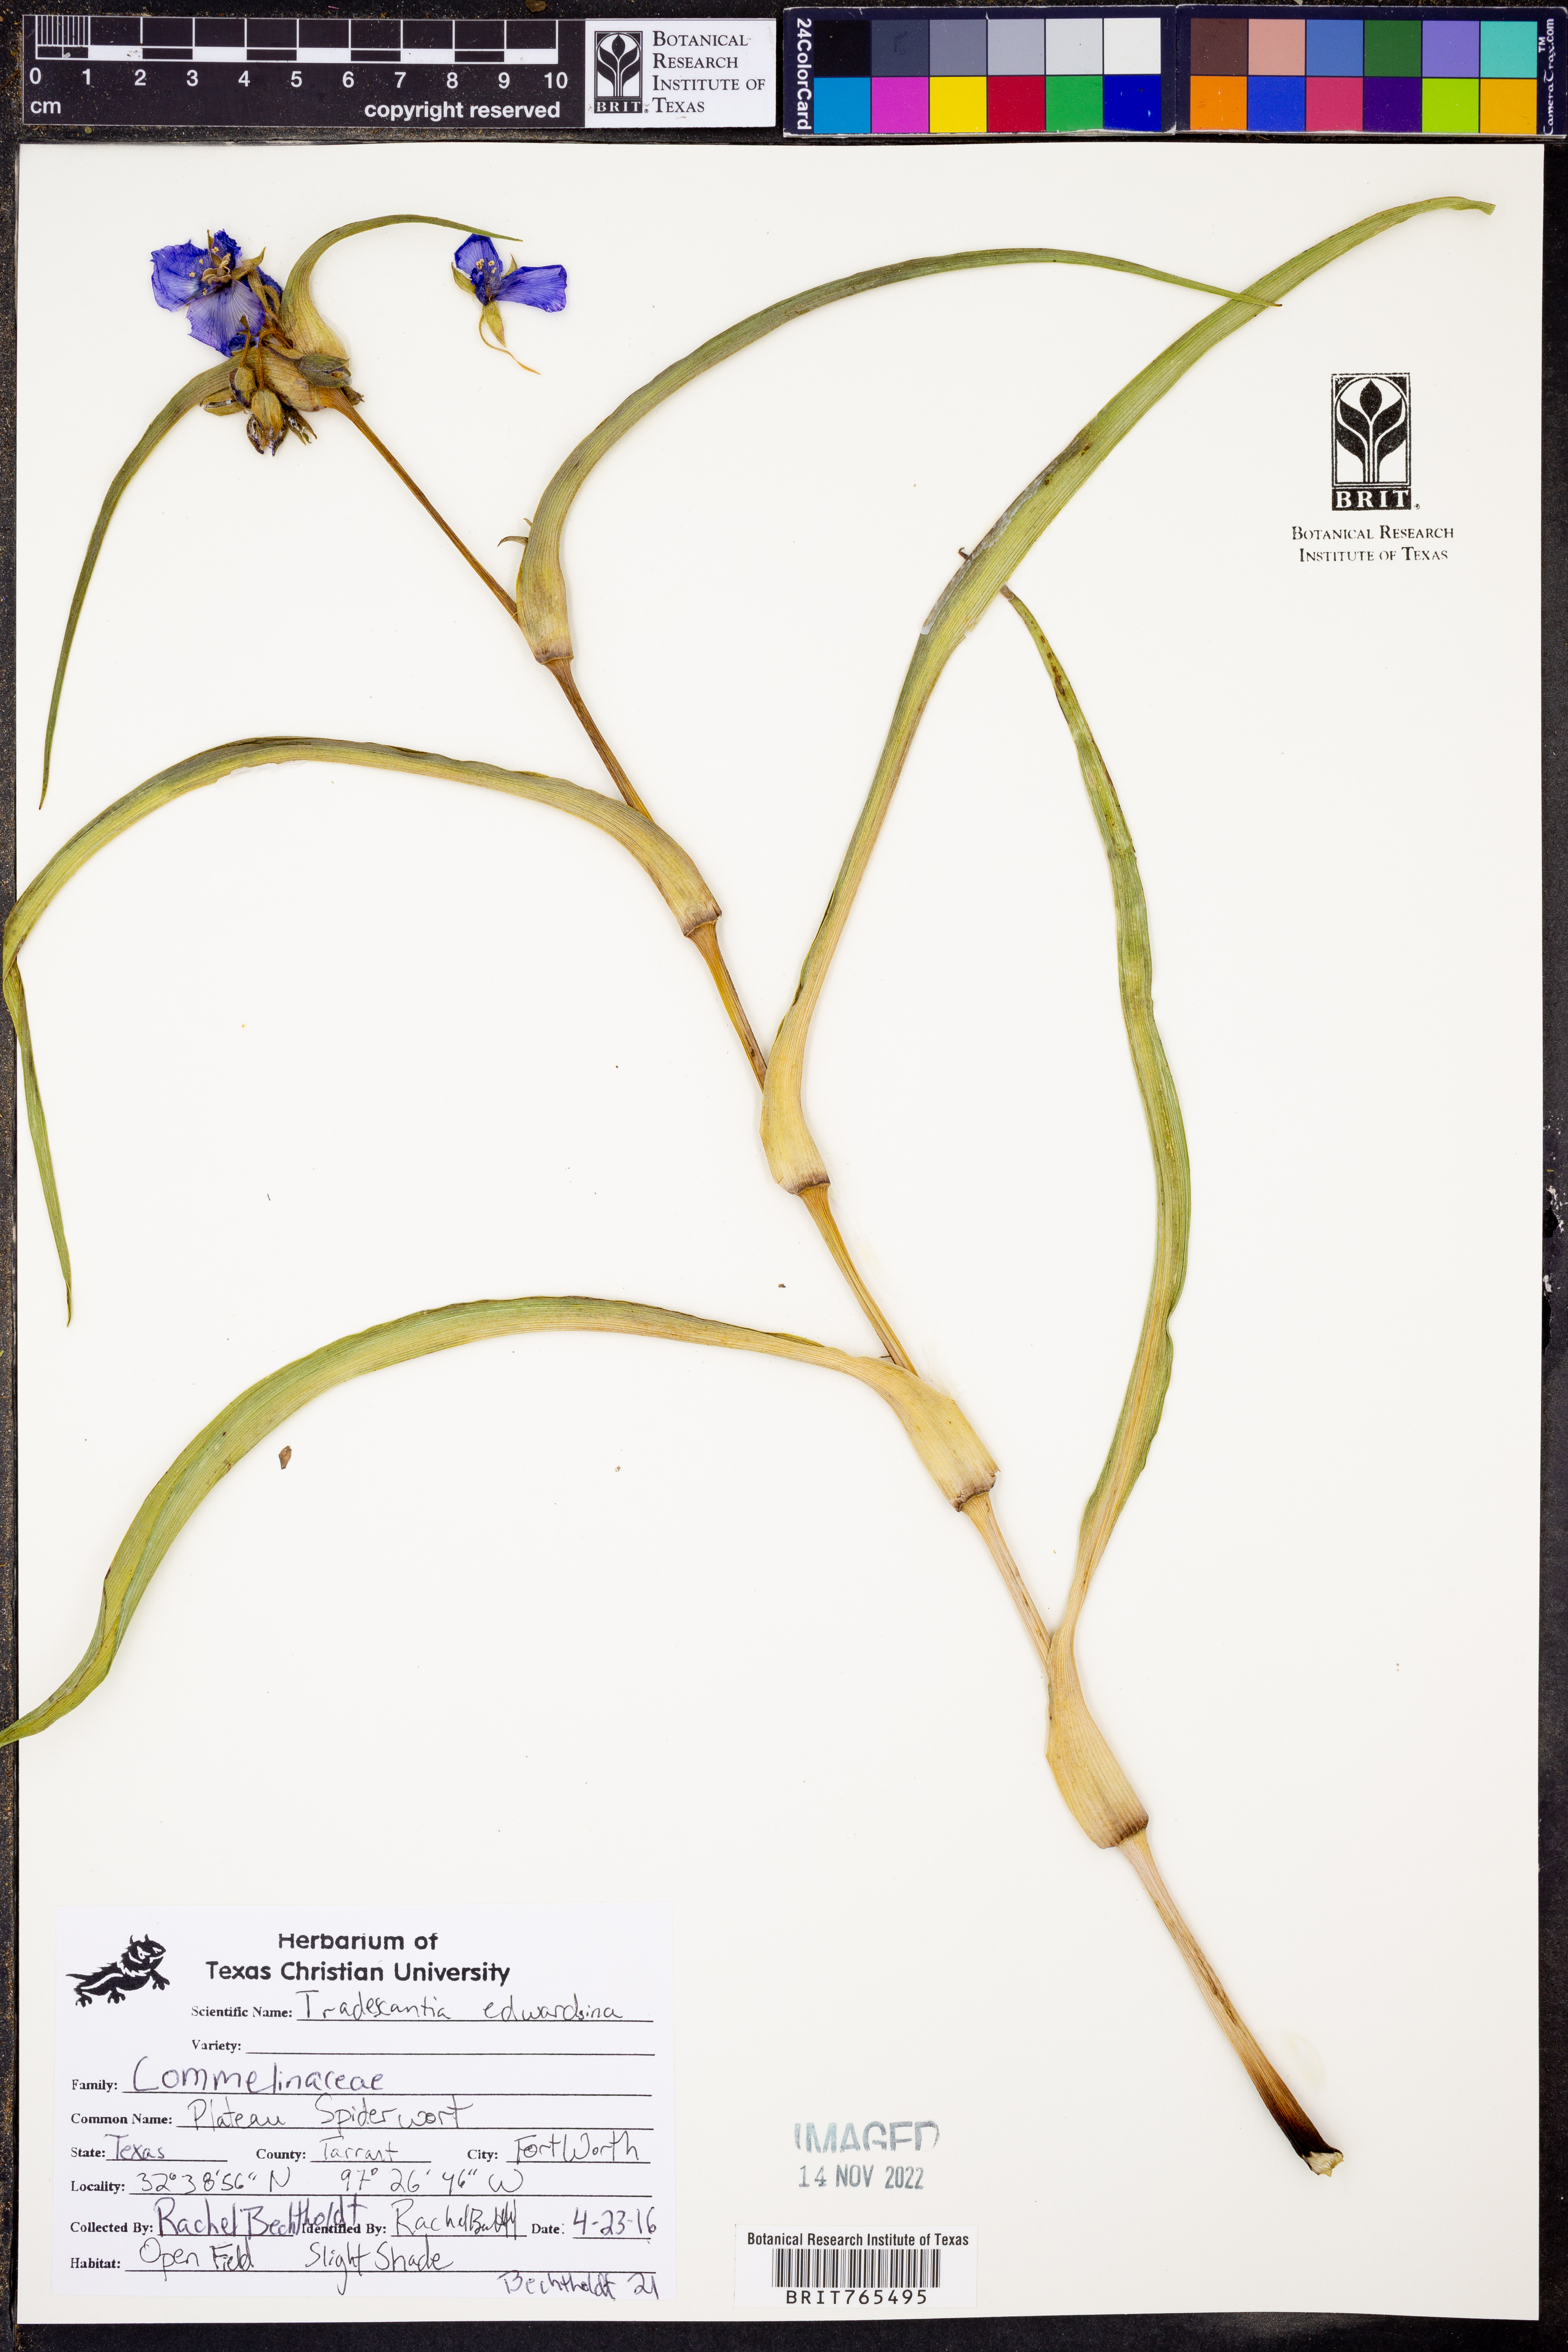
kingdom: Plantae
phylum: Tracheophyta
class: Liliopsida
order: Commelinales
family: Commelinaceae
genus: Tradescantia
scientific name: Tradescantia edwardsiana
